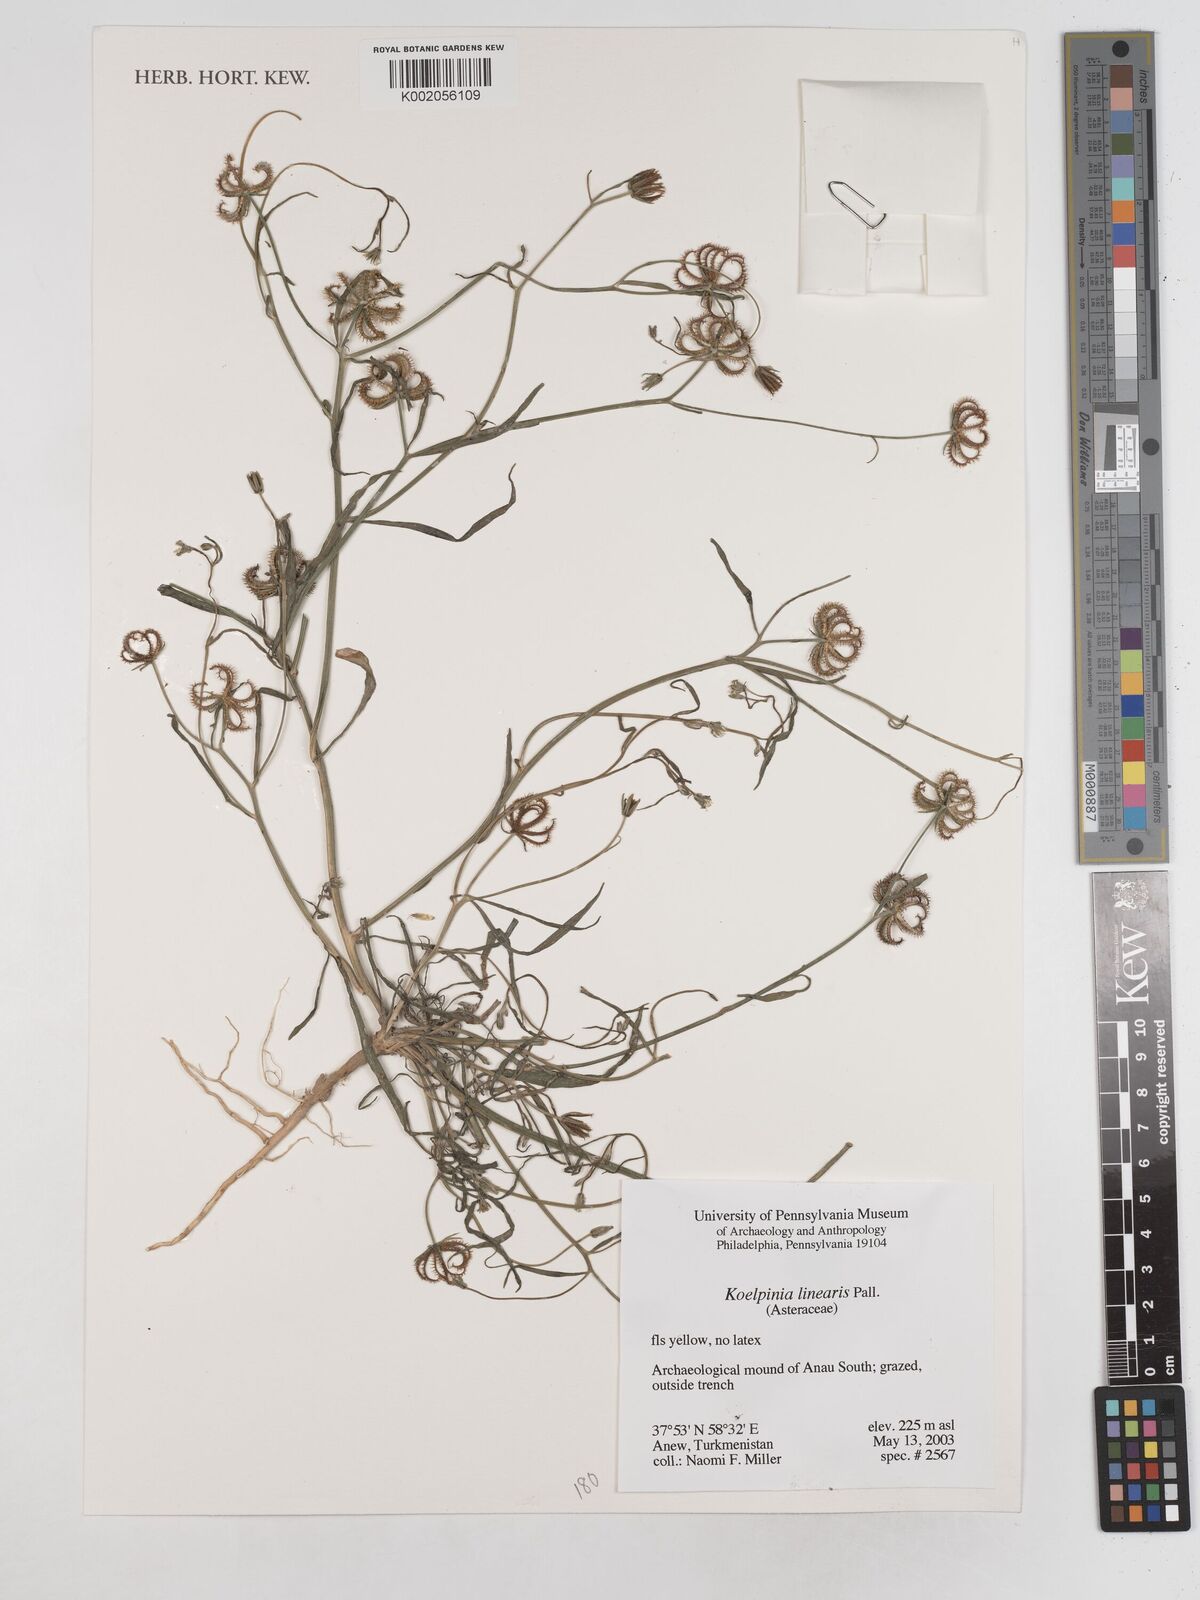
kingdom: Plantae
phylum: Tracheophyta
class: Magnoliopsida
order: Asterales
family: Asteraceae
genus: Koelpinia
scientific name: Koelpinia linearis
